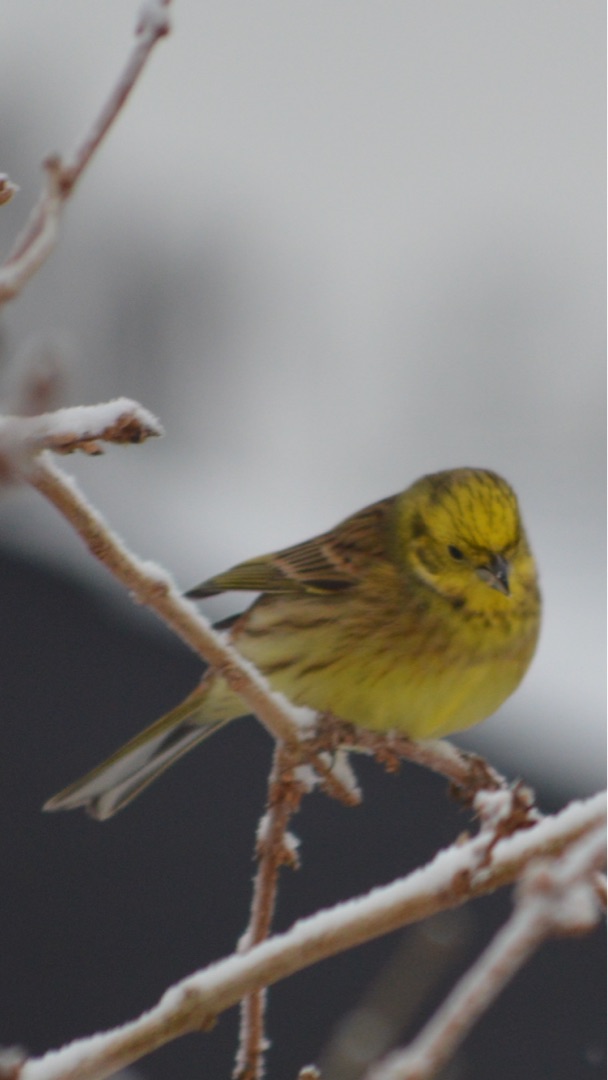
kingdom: Animalia
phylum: Chordata
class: Aves
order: Passeriformes
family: Emberizidae
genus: Emberiza
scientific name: Emberiza citrinella
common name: Gulspurv
